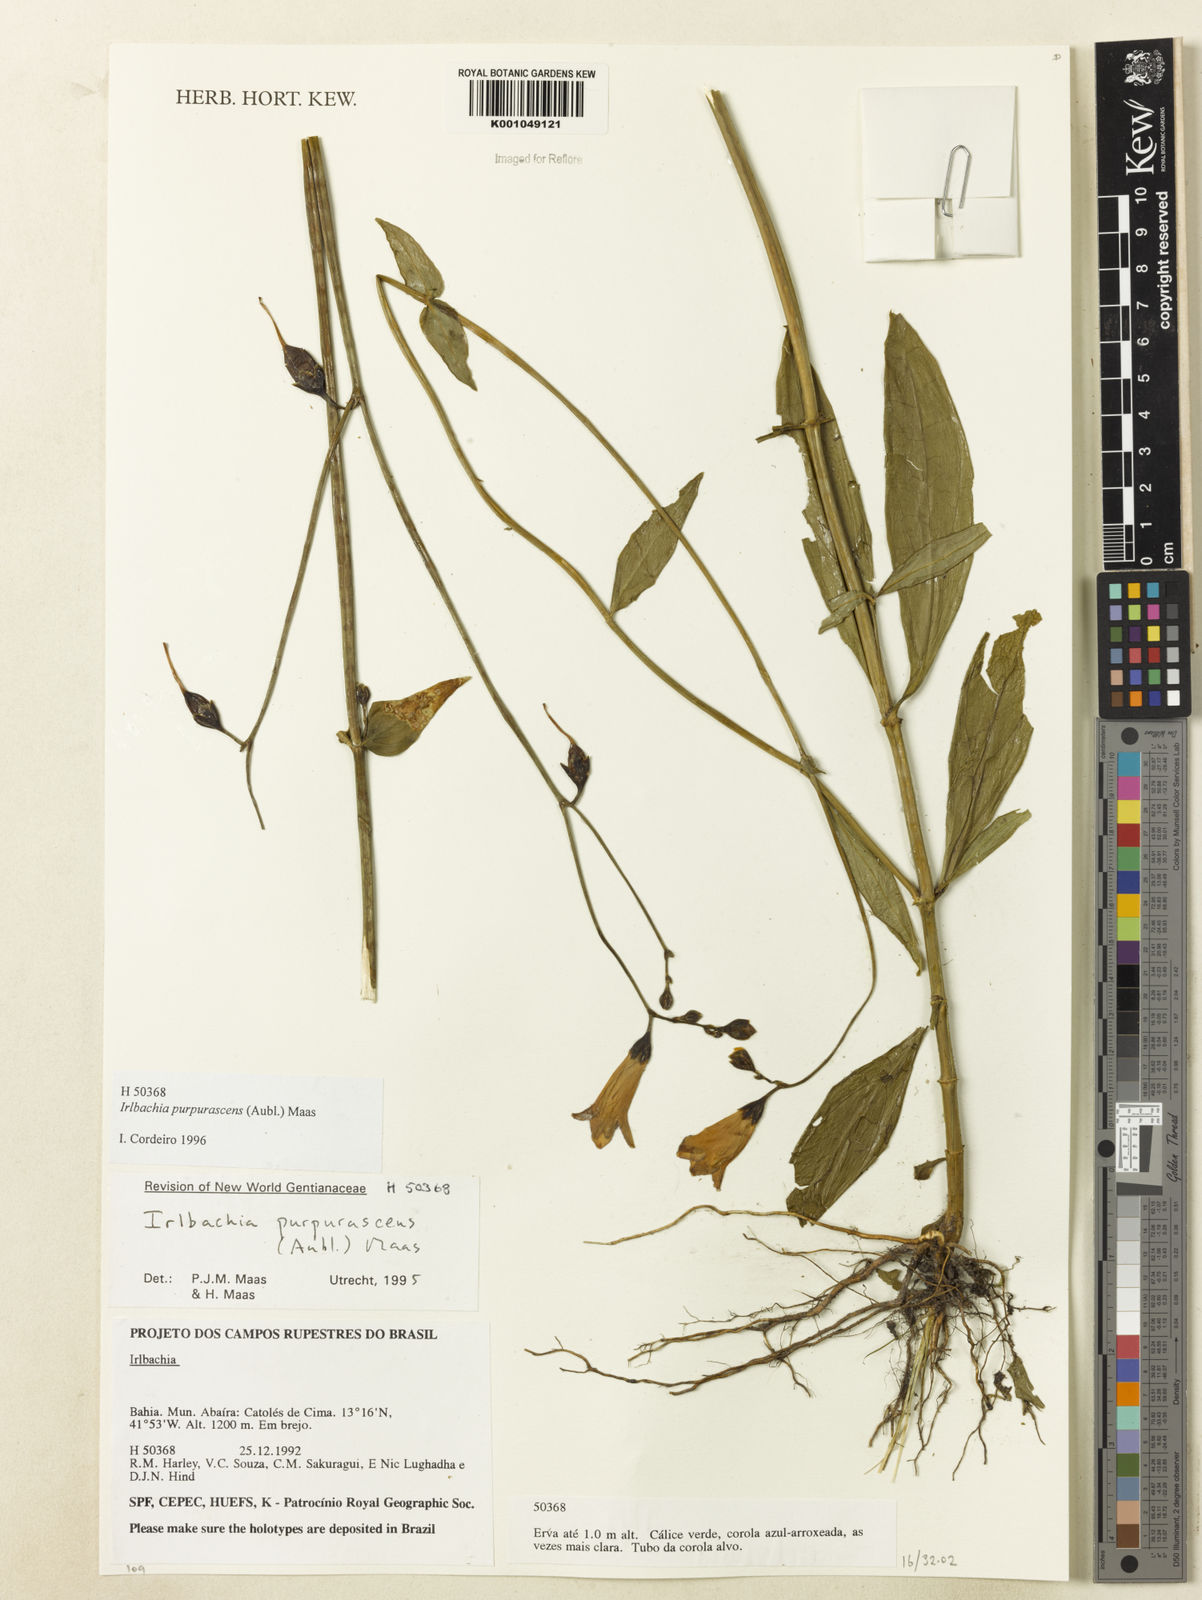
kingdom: Plantae
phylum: Tracheophyta
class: Magnoliopsida
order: Gentianales
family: Gentianaceae
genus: Chelonanthus
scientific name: Chelonanthus purpurascens
